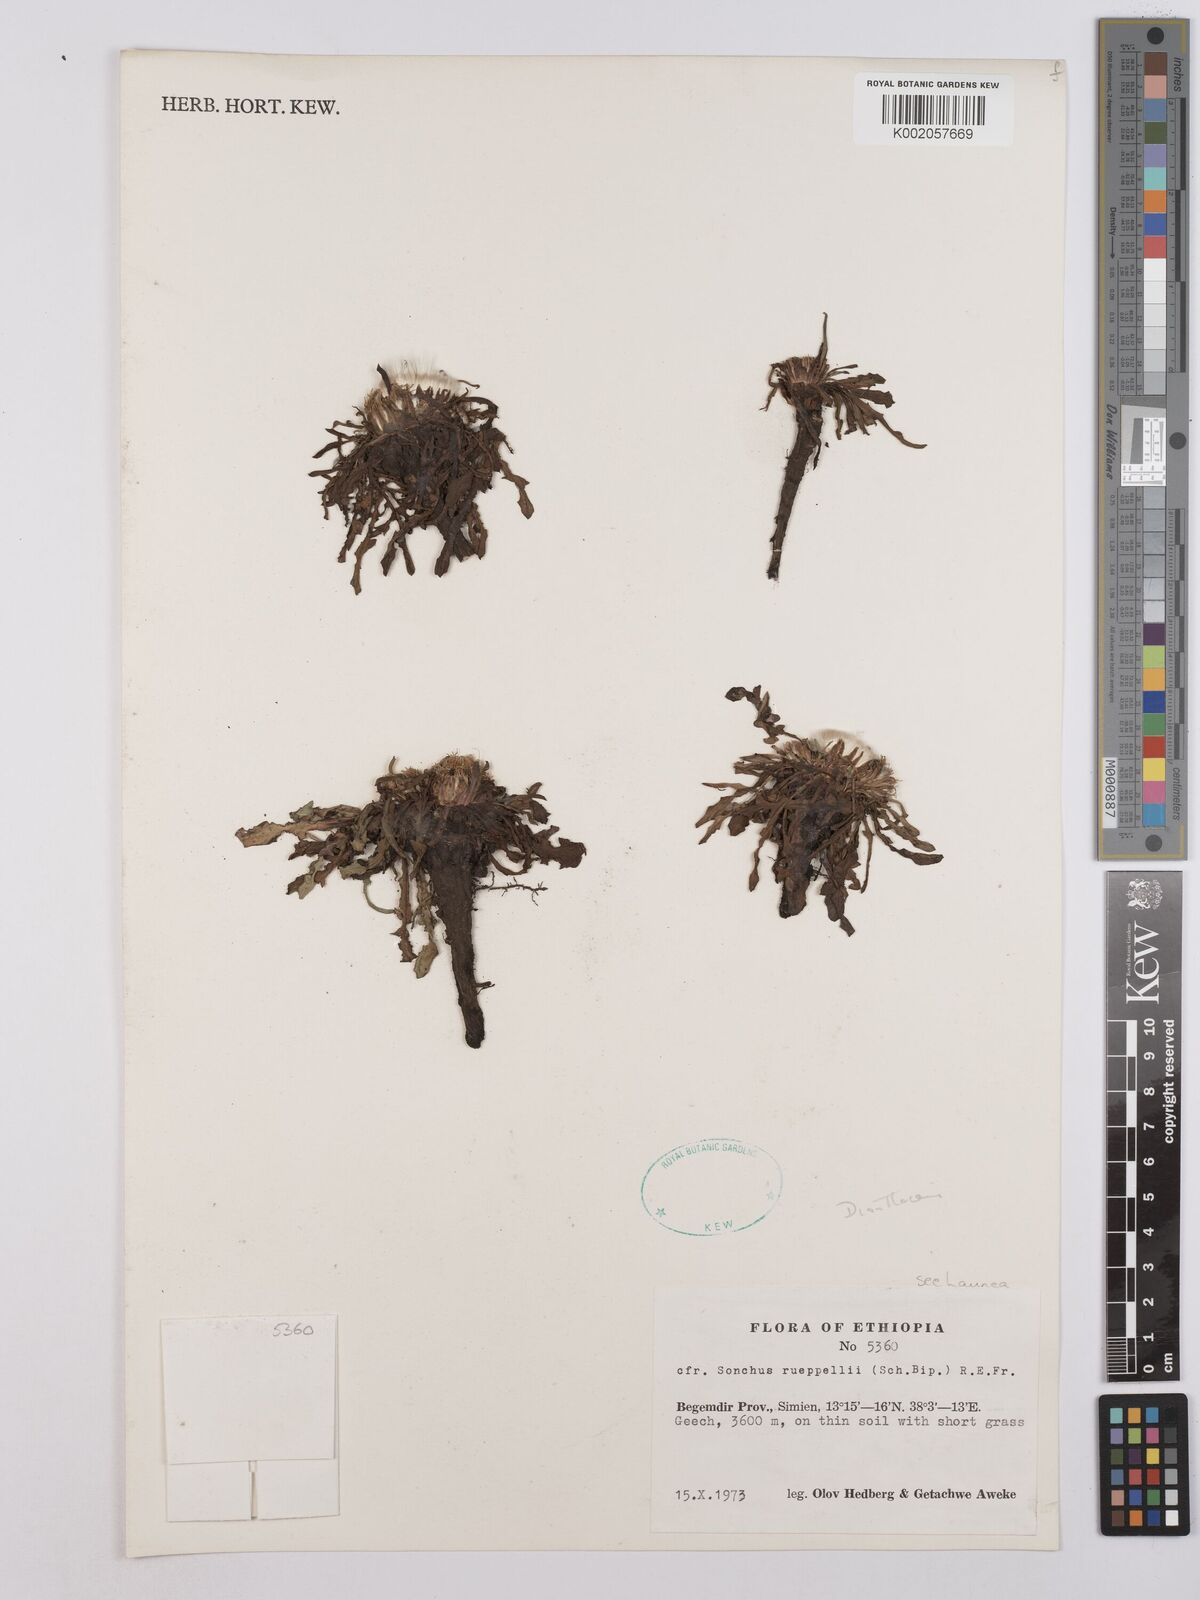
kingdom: Plantae
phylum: Tracheophyta
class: Magnoliopsida
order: Asterales
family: Asteraceae
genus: Crepis
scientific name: Crepis foetida
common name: Stinking hawk's-beard
